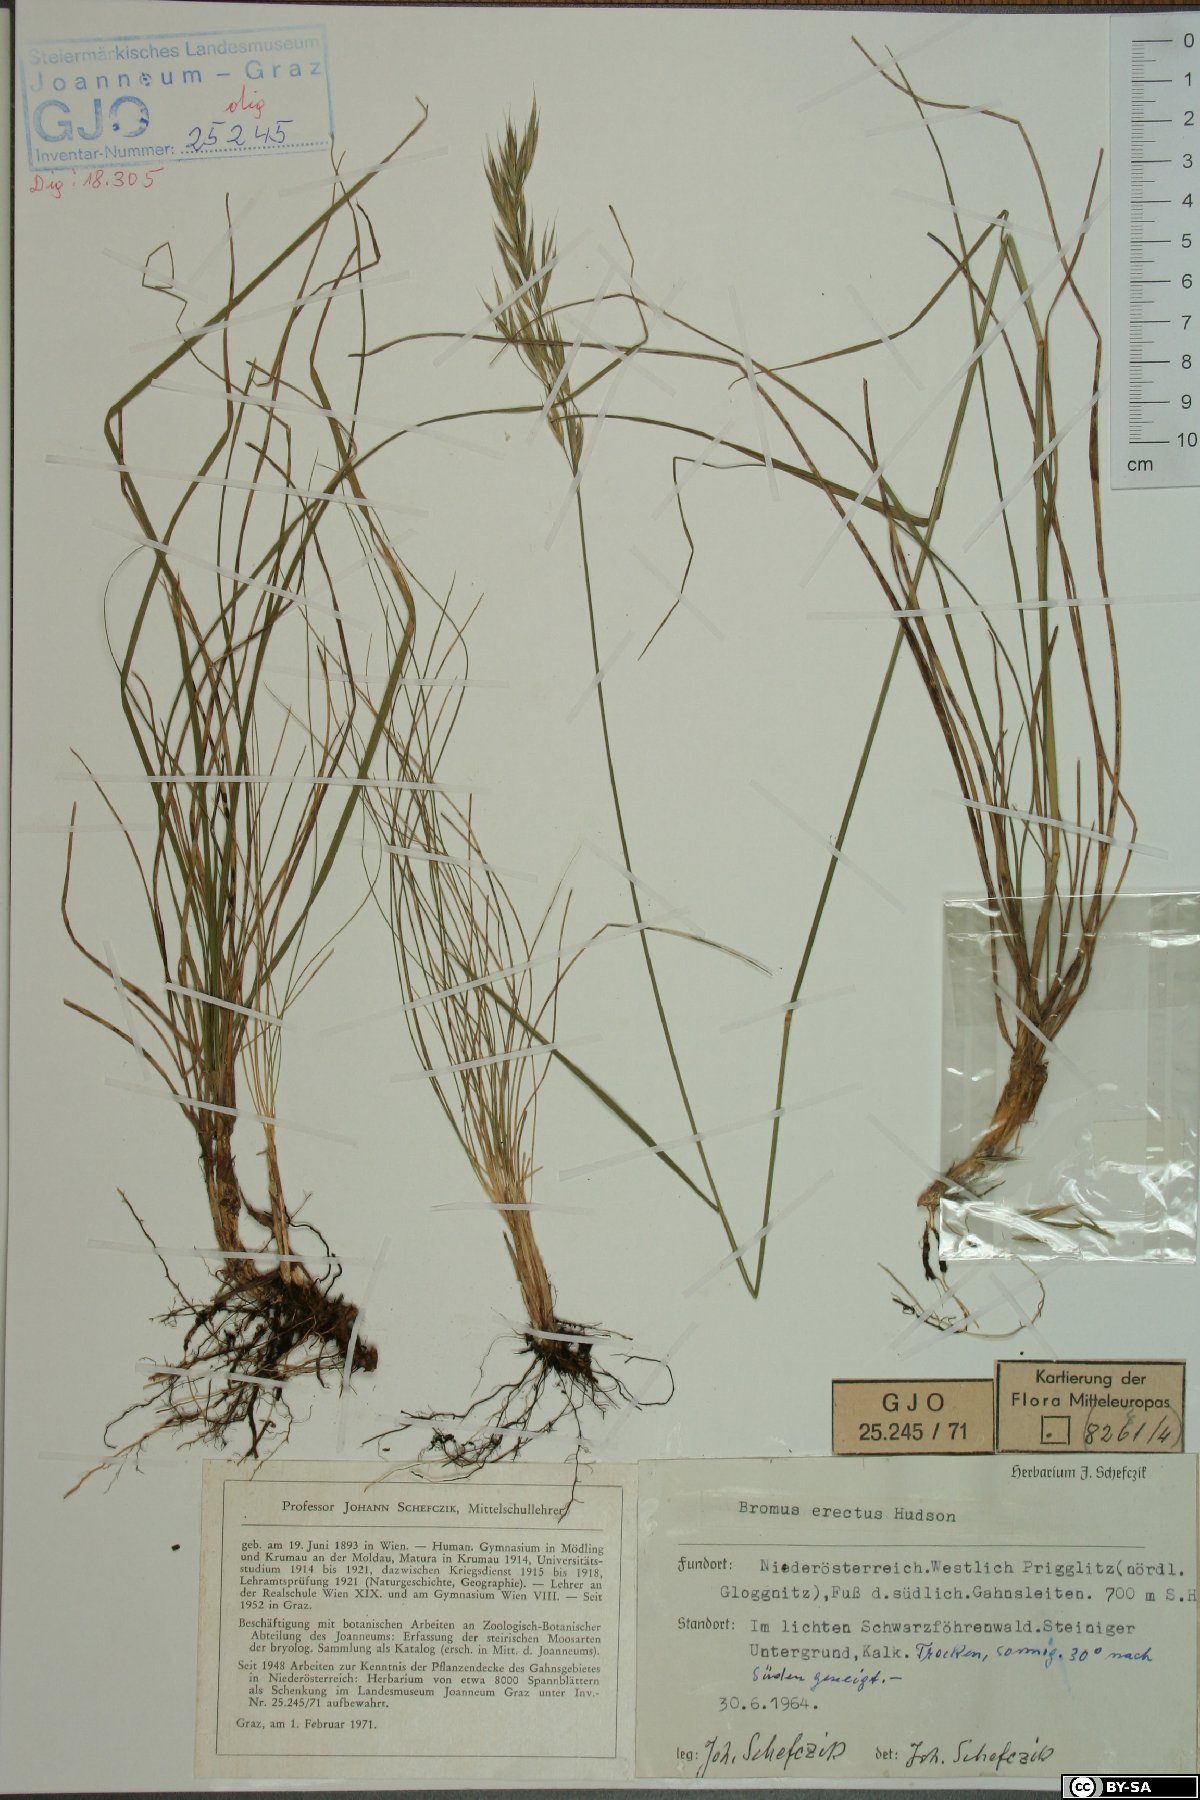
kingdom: Plantae
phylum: Tracheophyta
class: Liliopsida
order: Poales
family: Poaceae
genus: Bromus
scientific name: Bromus erectus
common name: Erect brome
